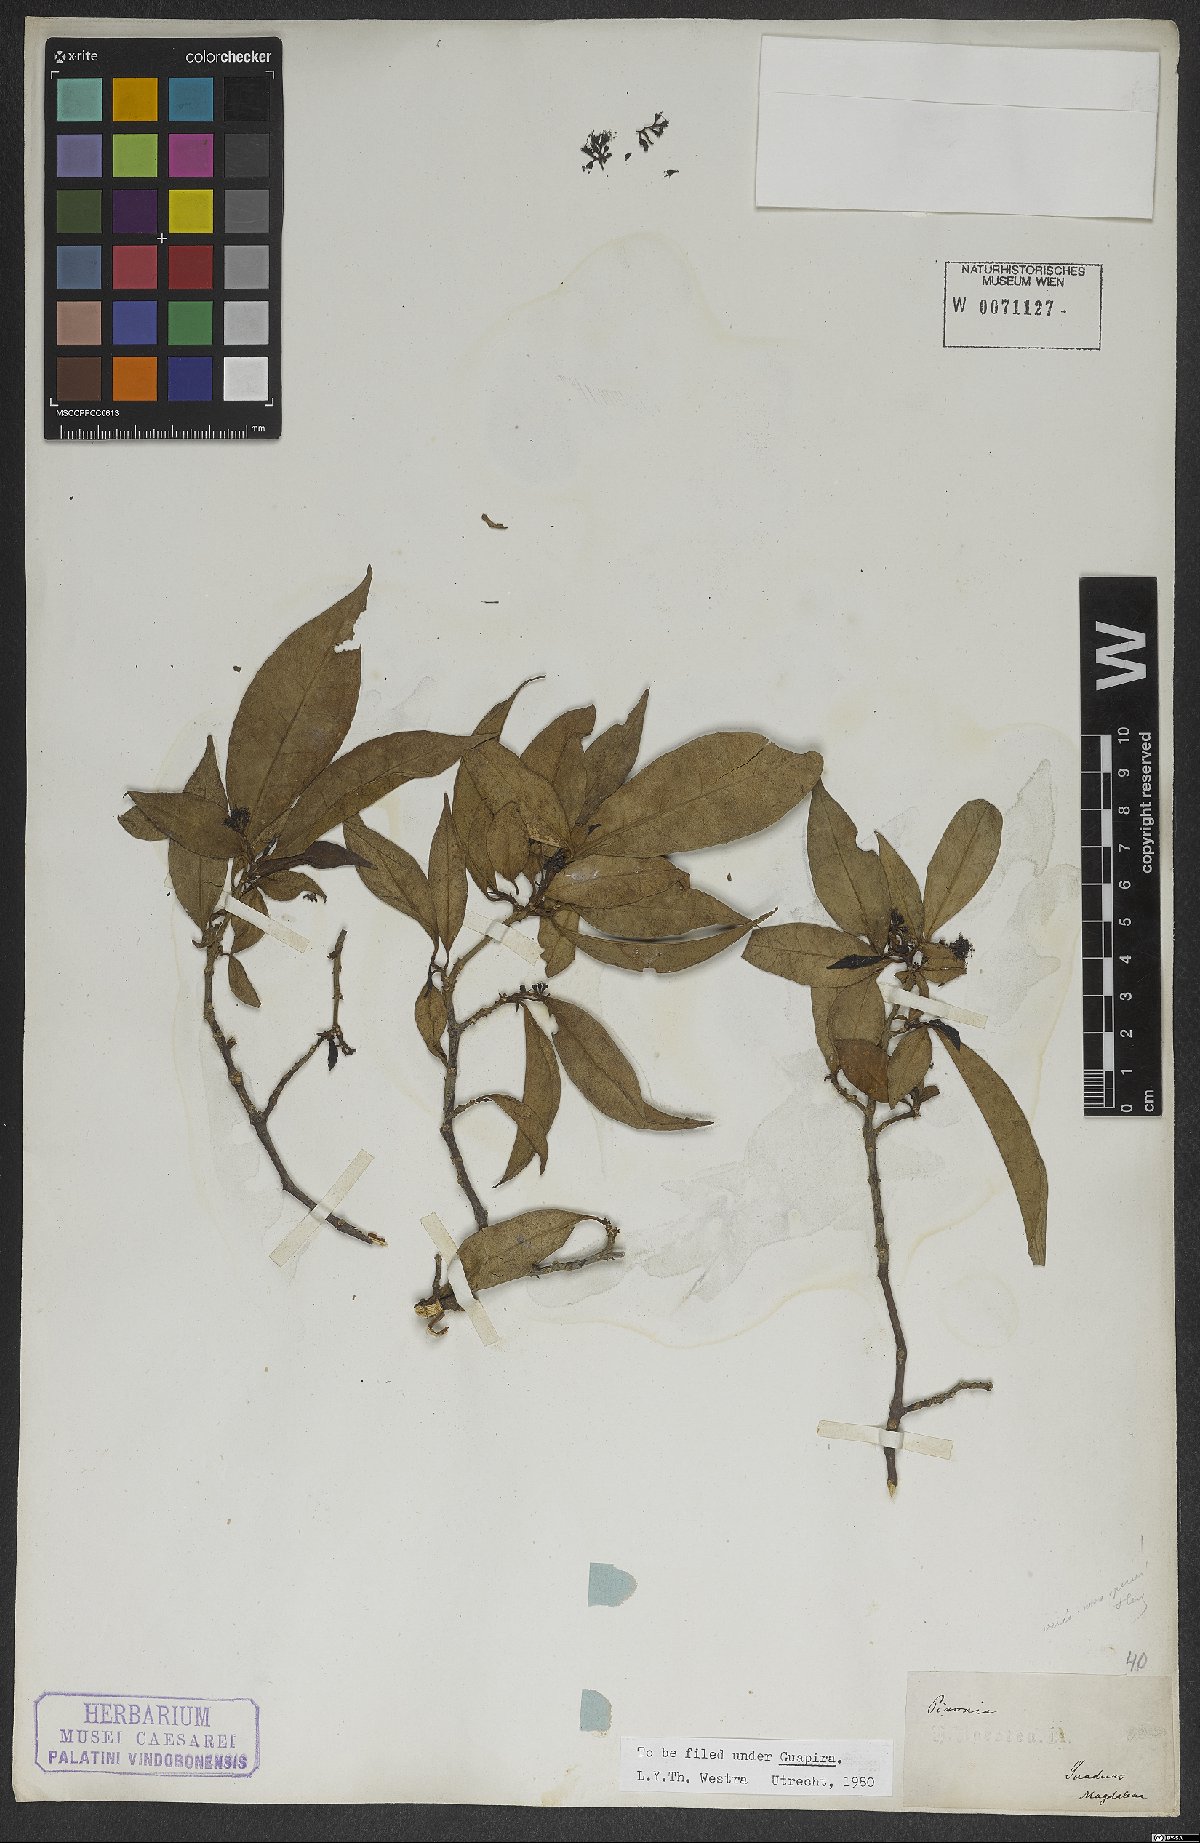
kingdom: Plantae
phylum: Tracheophyta
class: Magnoliopsida
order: Caryophyllales
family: Nyctaginaceae
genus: Guapira
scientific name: Guapira
